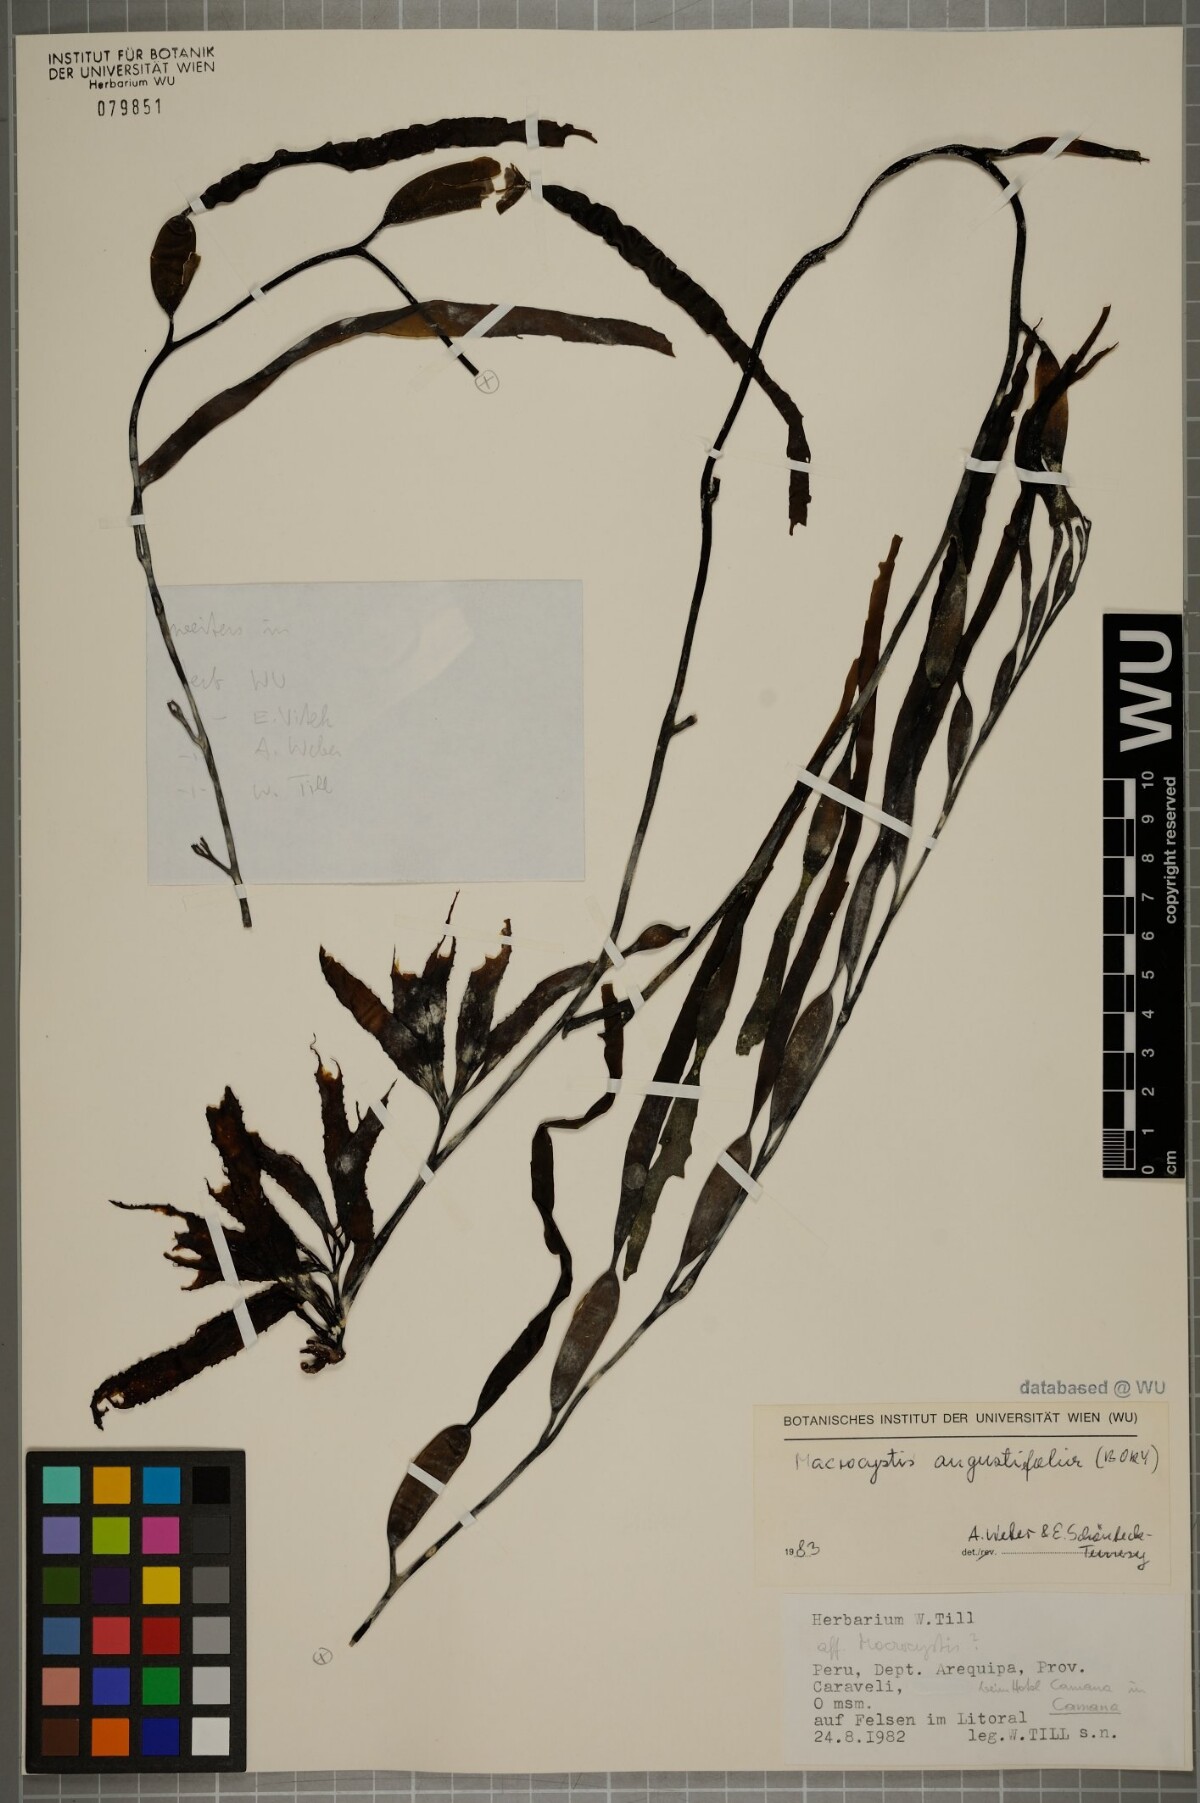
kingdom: Chromista
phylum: Ochrophyta
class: Phaeophyceae
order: Laminariales
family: Laminariaceae
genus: Macrocystis
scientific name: Macrocystis angustifolia
